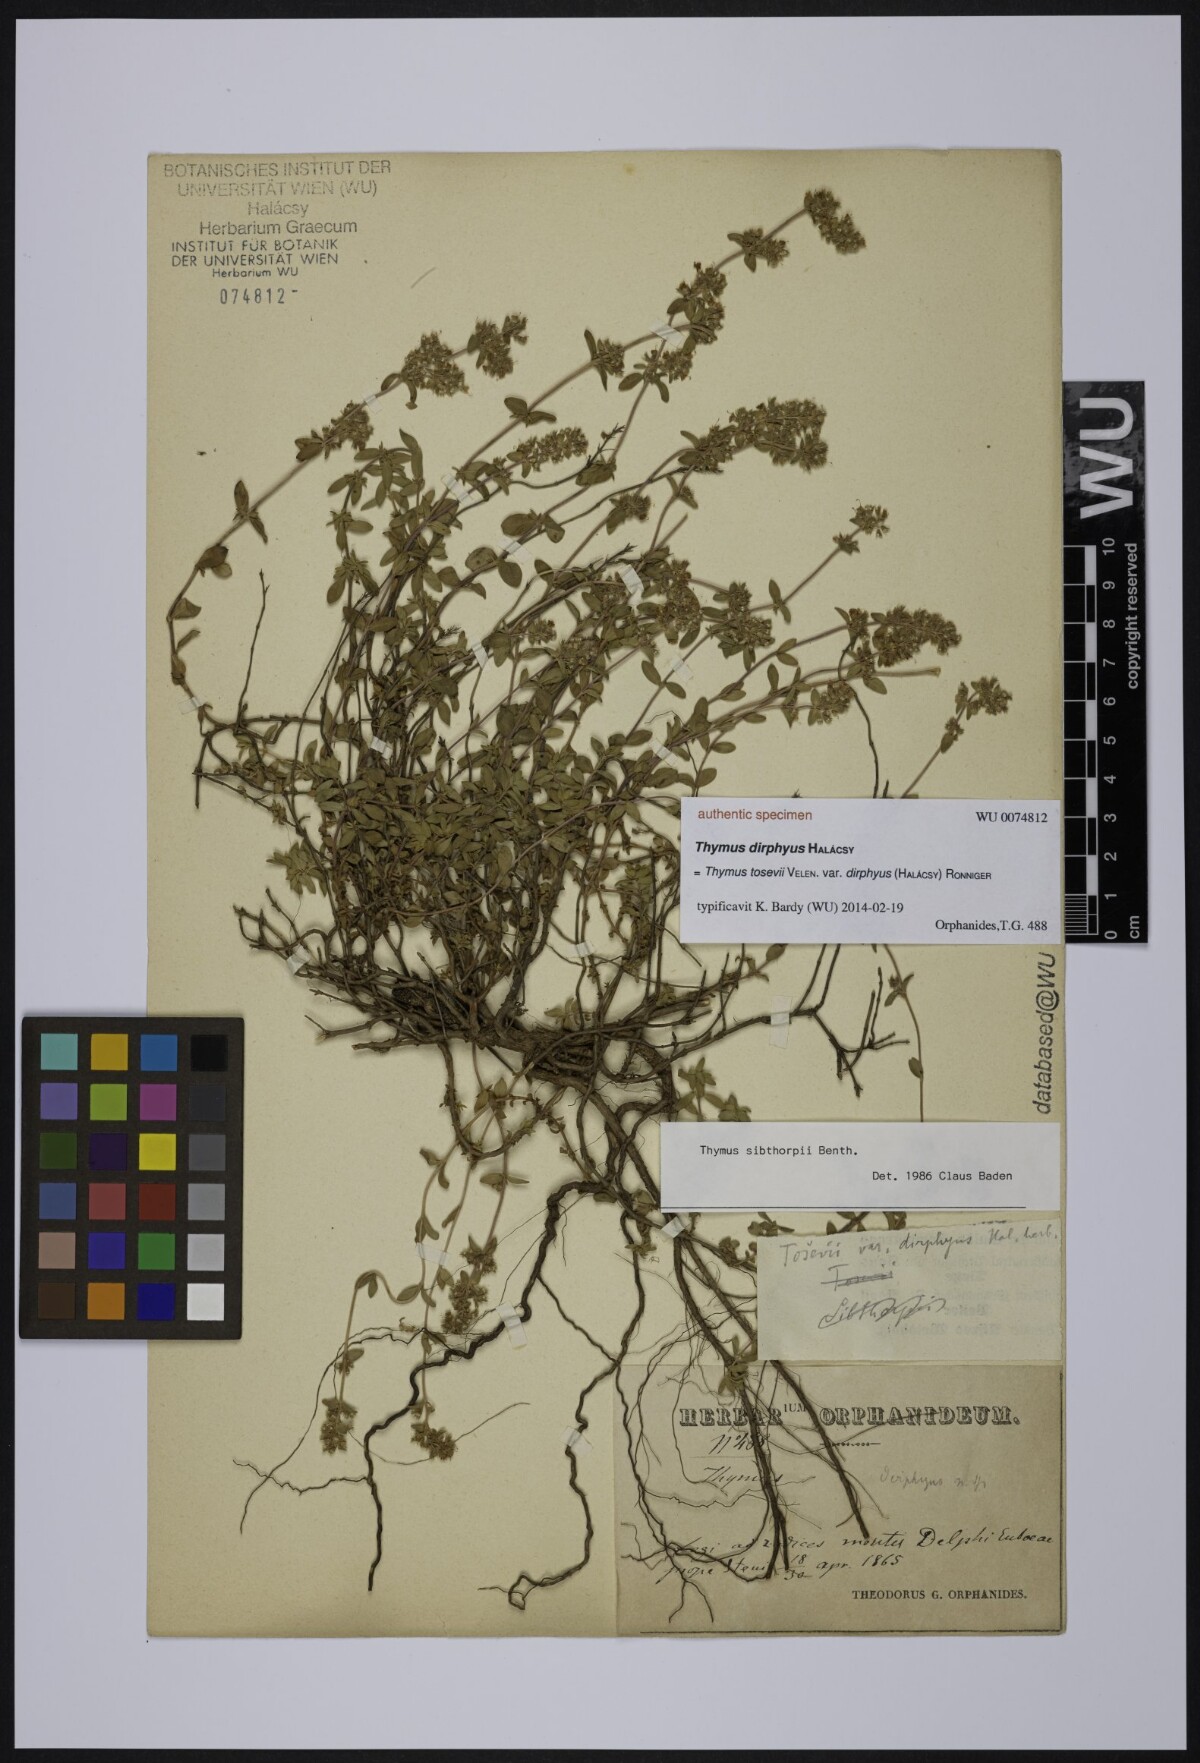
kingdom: Plantae
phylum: Tracheophyta
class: Magnoliopsida
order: Lamiales
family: Lamiaceae
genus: Thymus
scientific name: Thymus
